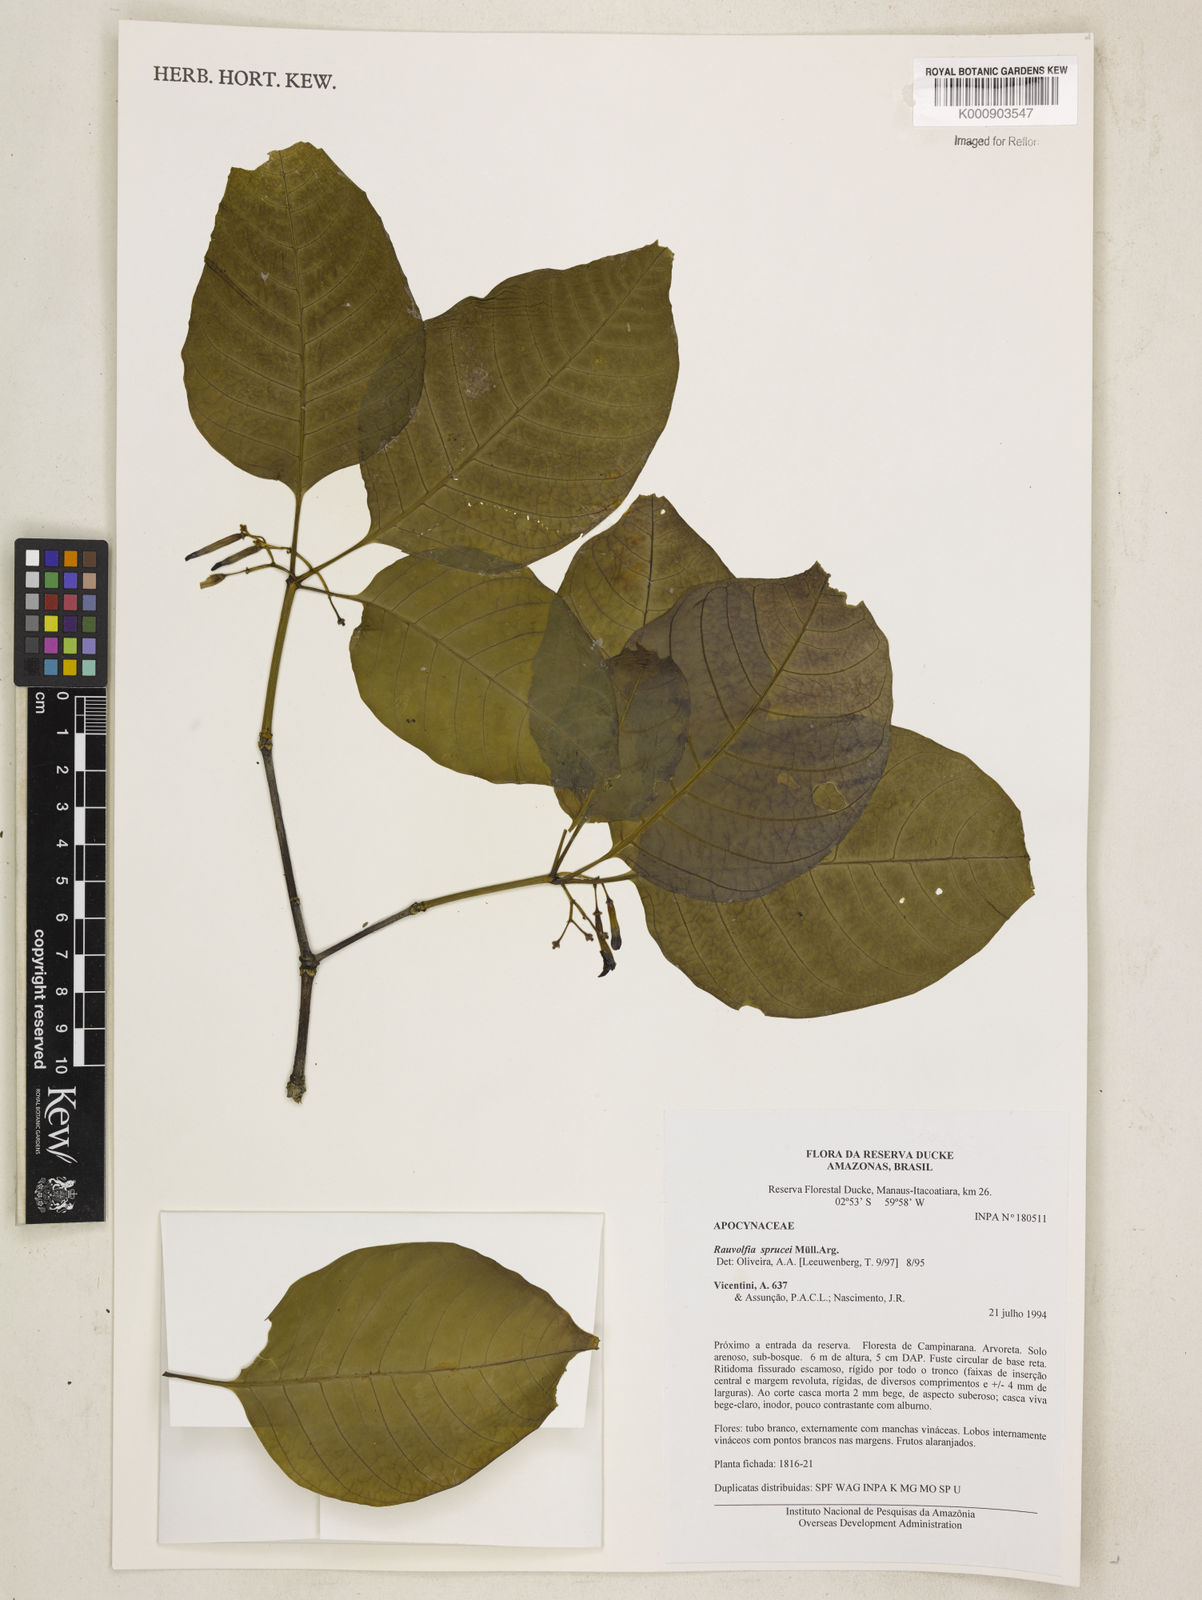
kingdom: Plantae
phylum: Tracheophyta
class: Magnoliopsida
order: Gentianales
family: Apocynaceae
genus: Rauvolfia
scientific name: Rauvolfia
